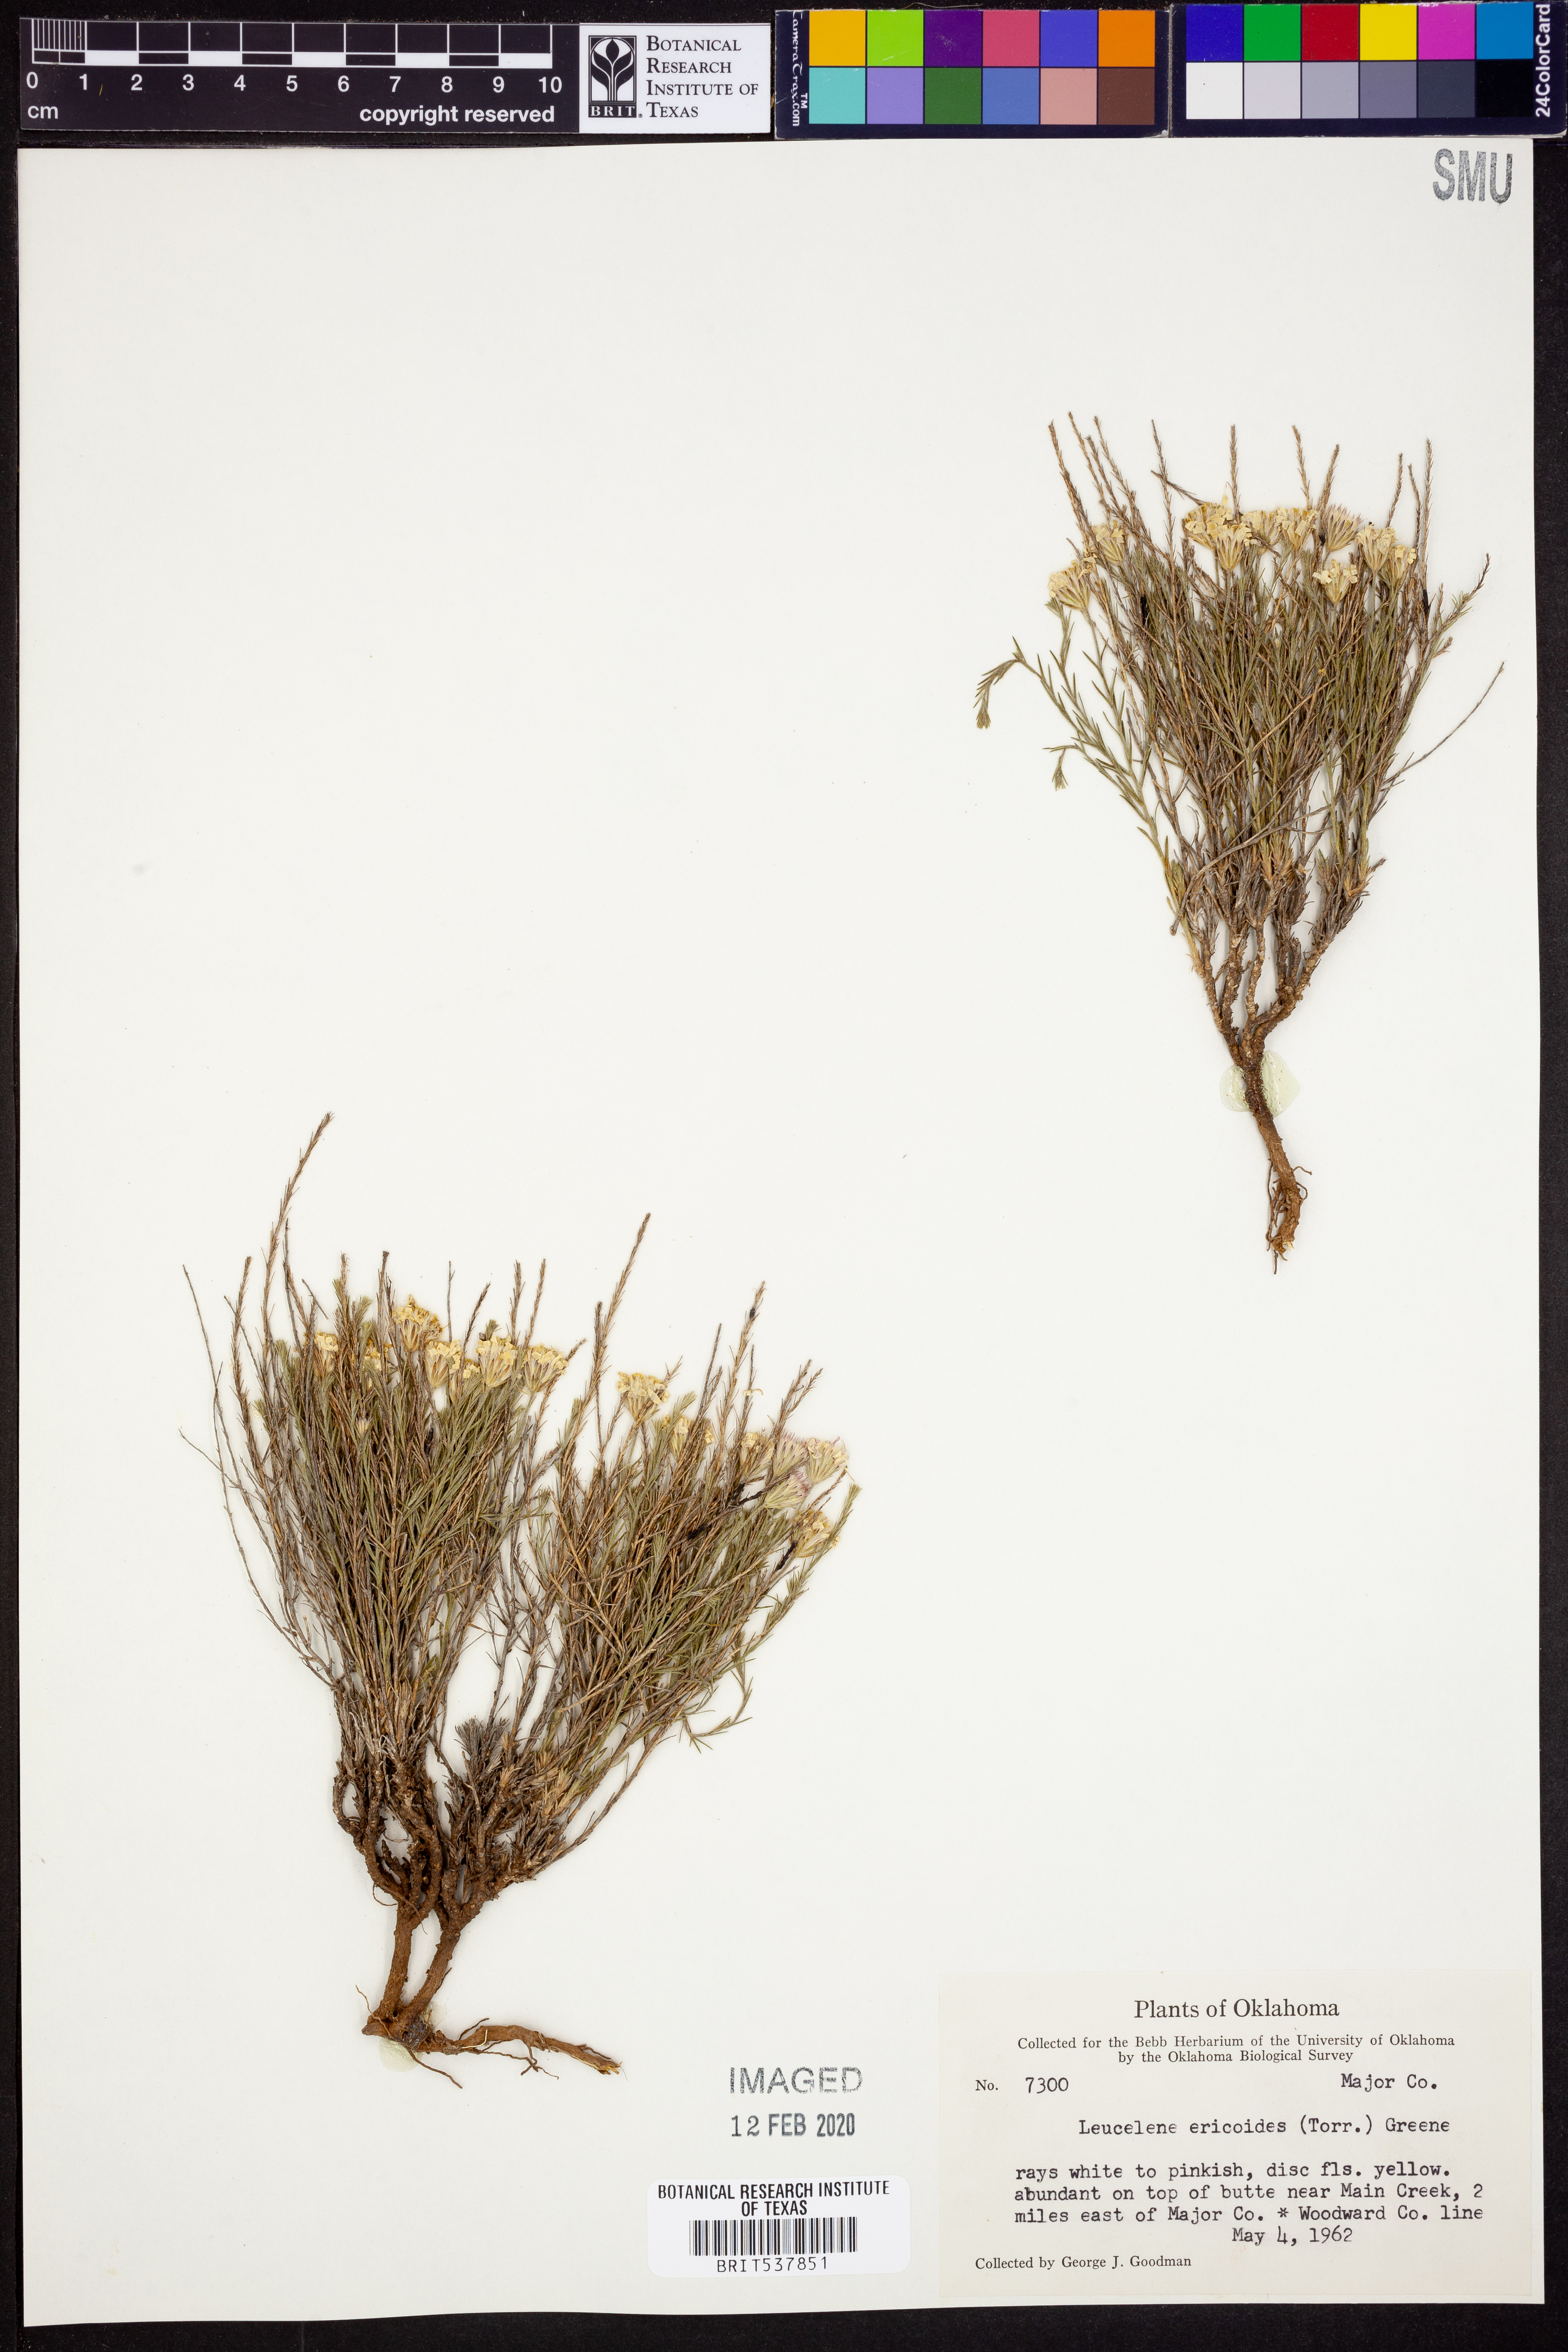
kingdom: Plantae
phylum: Tracheophyta
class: Magnoliopsida
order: Asterales
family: Asteraceae
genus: Chaetopappa
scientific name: Chaetopappa ericoides
